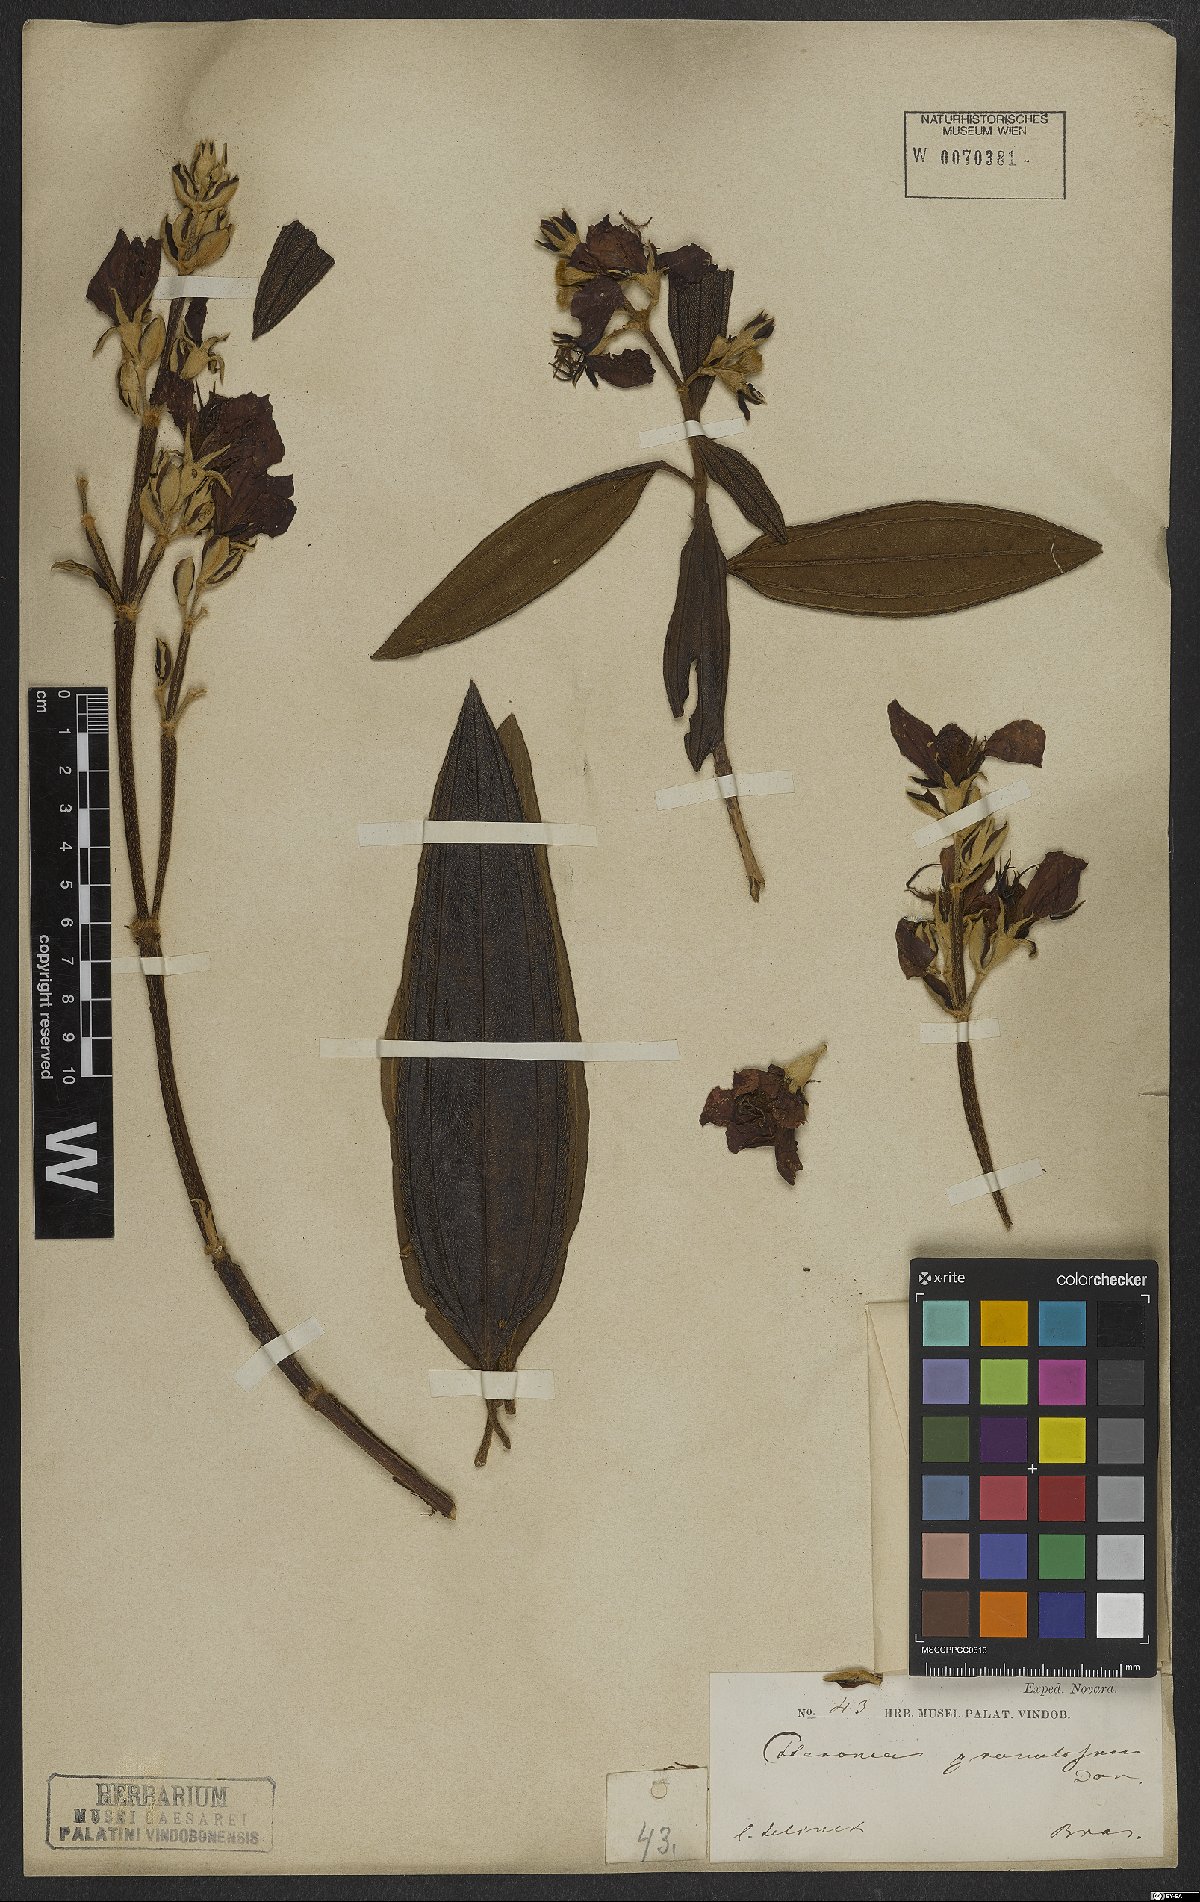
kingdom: Plantae
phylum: Tracheophyta
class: Magnoliopsida
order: Myrtales
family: Melastomataceae
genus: Pleroma
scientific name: Pleroma granulosum
